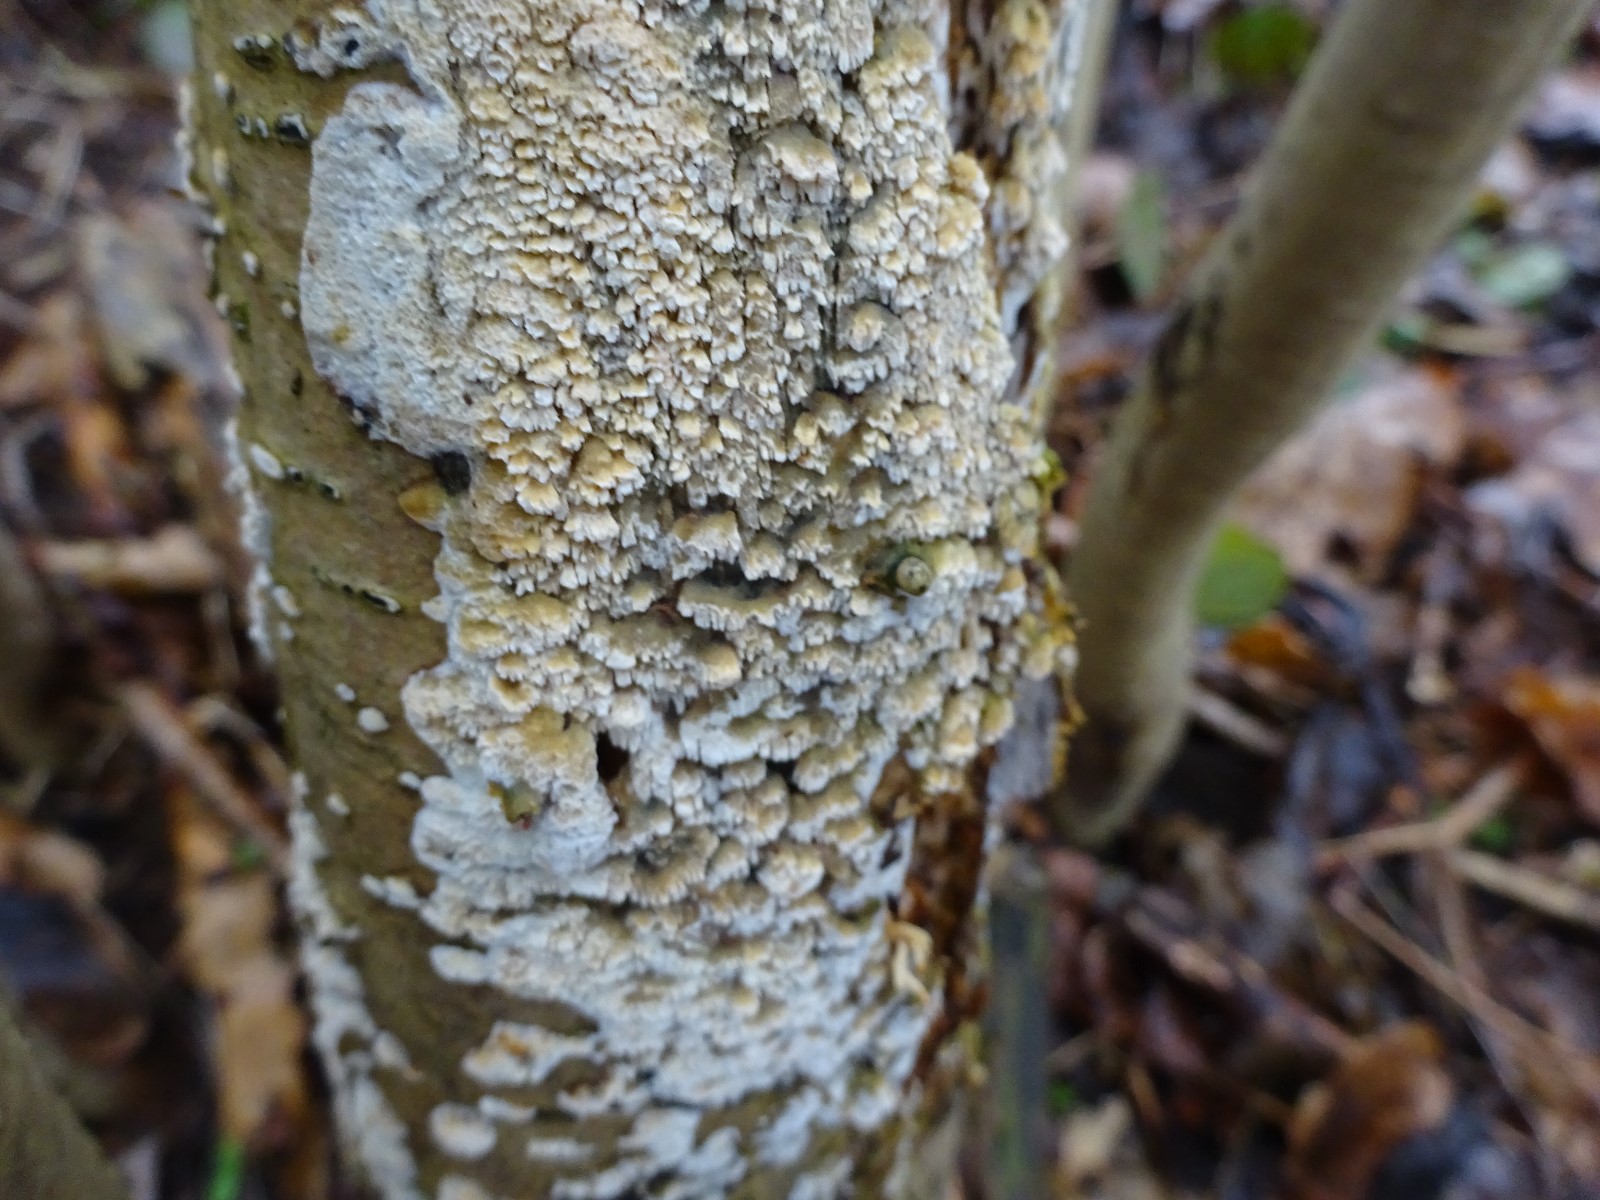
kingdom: Fungi
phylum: Basidiomycota
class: Agaricomycetes
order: Hymenochaetales
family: Schizoporaceae
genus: Schizopora
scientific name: Schizopora paradoxa
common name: hvid tandsvamp
